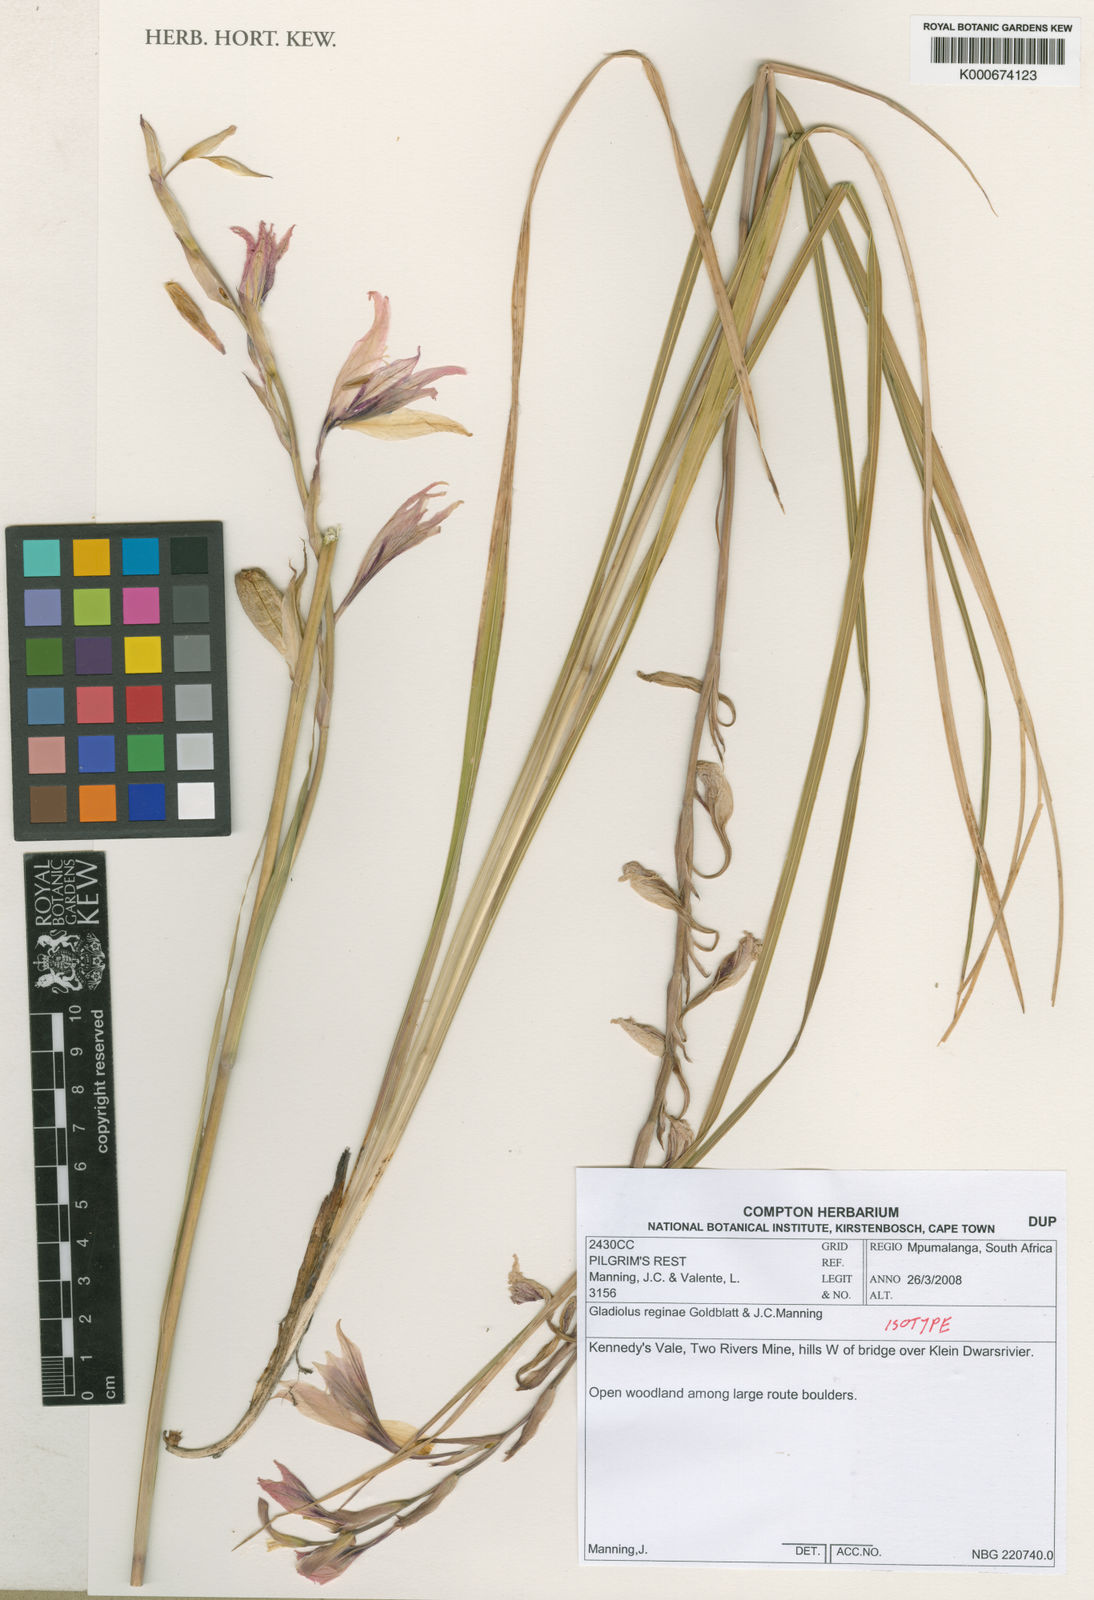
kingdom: Plantae
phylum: Tracheophyta
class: Liliopsida
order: Asparagales
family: Iridaceae
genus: Gladiolus
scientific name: Gladiolus reginae
